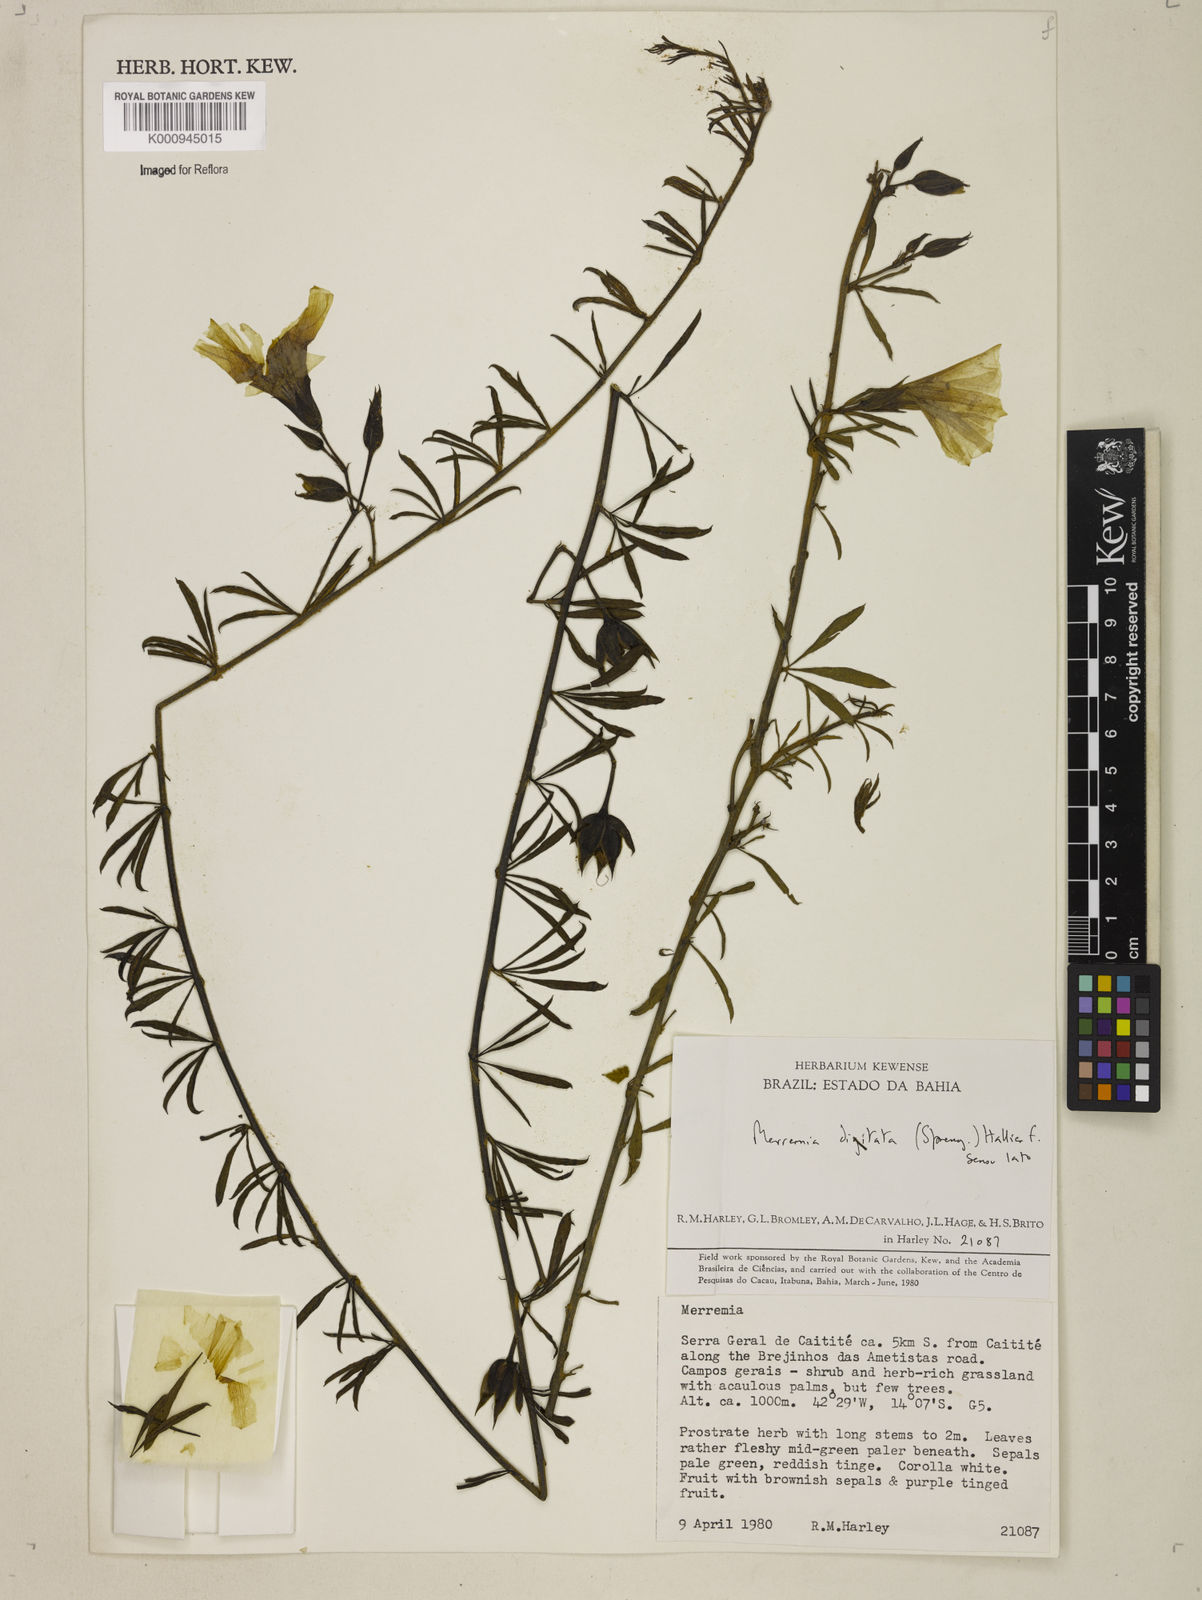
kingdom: Plantae
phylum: Tracheophyta
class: Magnoliopsida
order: Solanales
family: Convolvulaceae
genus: Distimake
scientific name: Distimake digitatus
